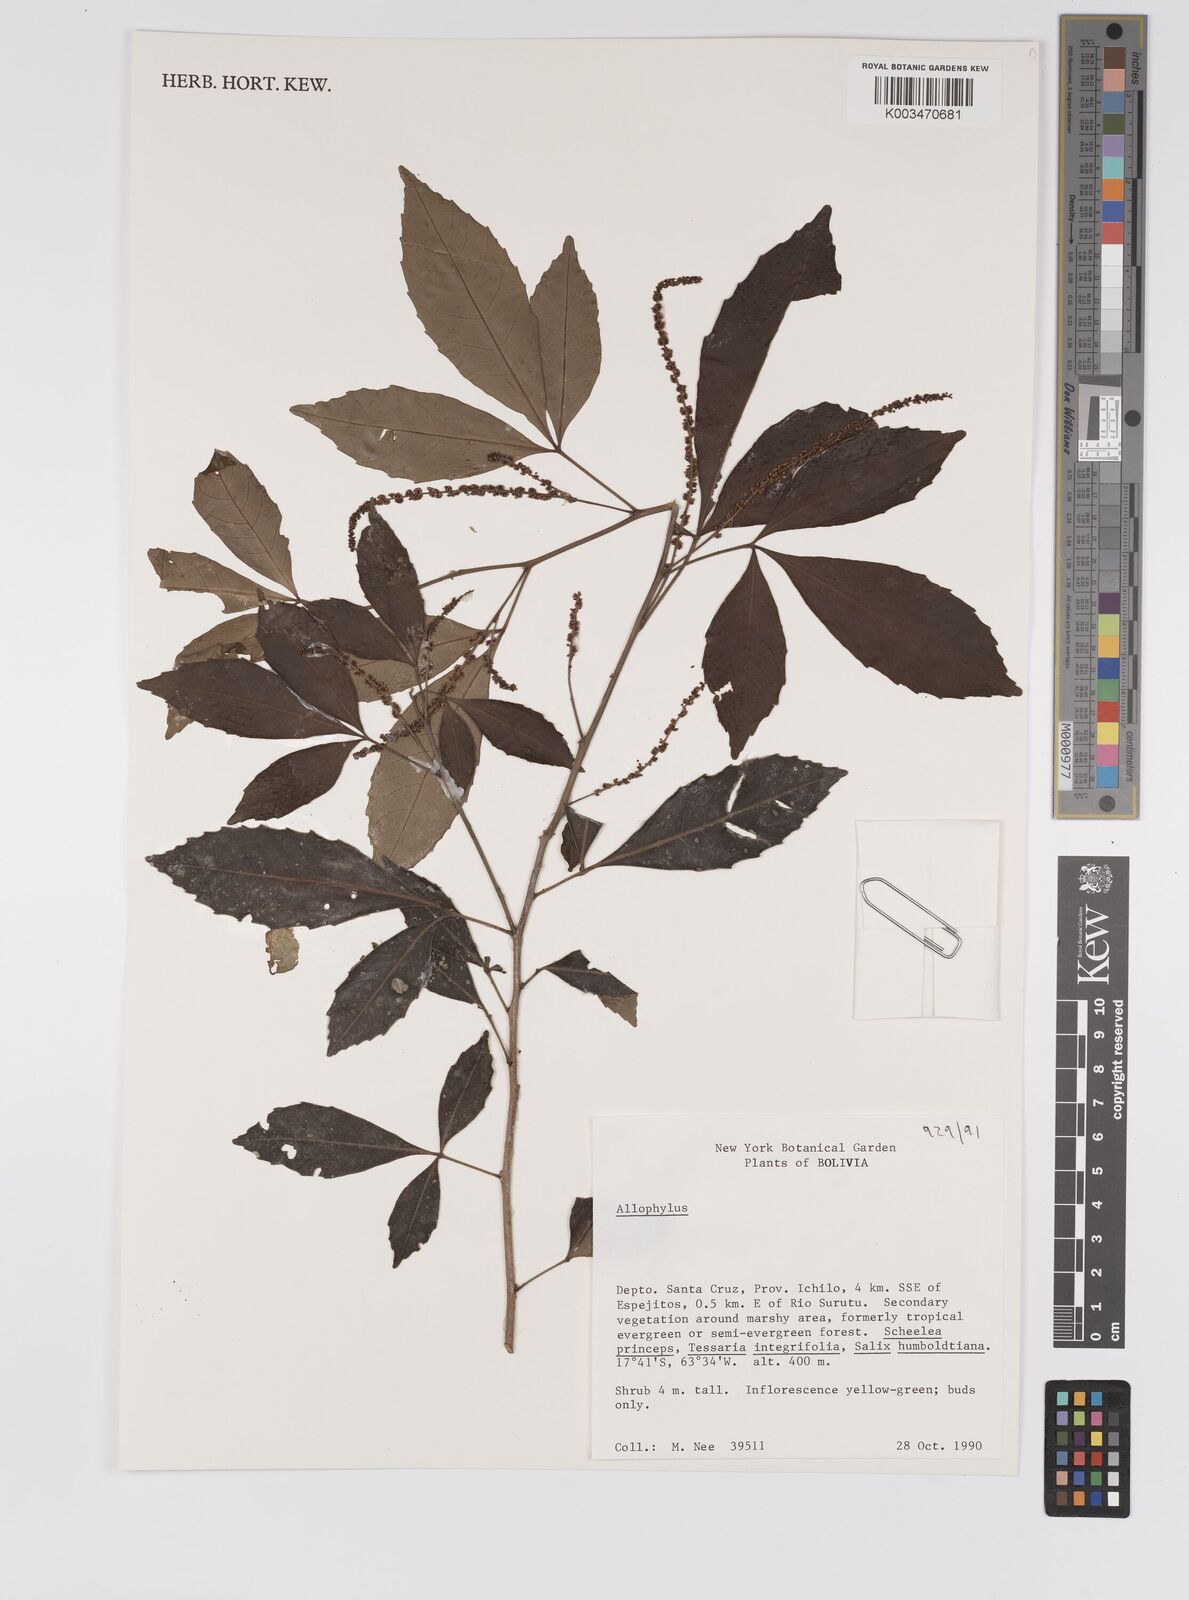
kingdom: Plantae
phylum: Tracheophyta
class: Magnoliopsida
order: Sapindales
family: Sapindaceae
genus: Allophylus
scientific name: Allophylus
